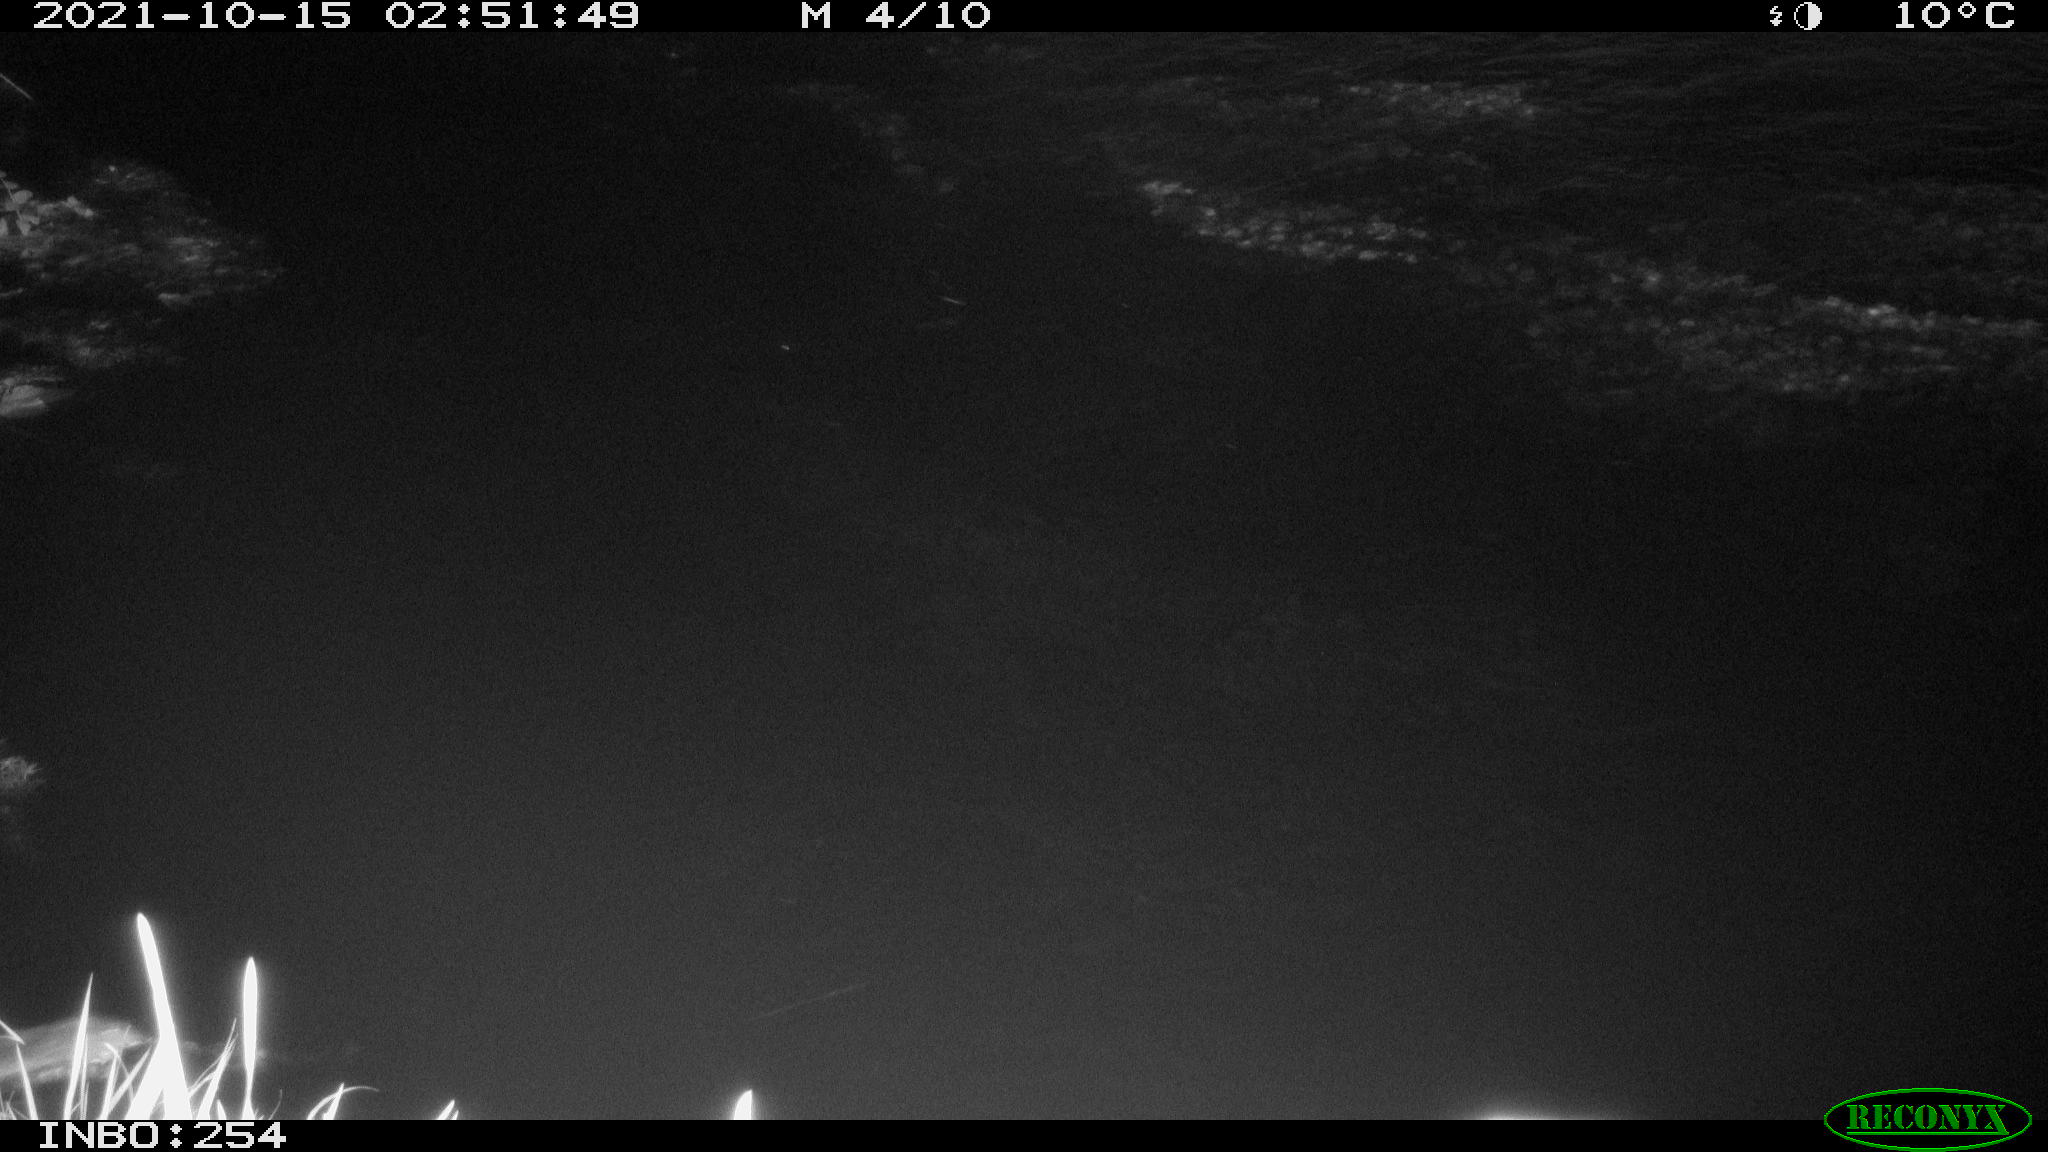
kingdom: Animalia
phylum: Chordata
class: Mammalia
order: Rodentia
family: Muridae
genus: Rattus
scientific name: Rattus norvegicus
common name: Brown rat
